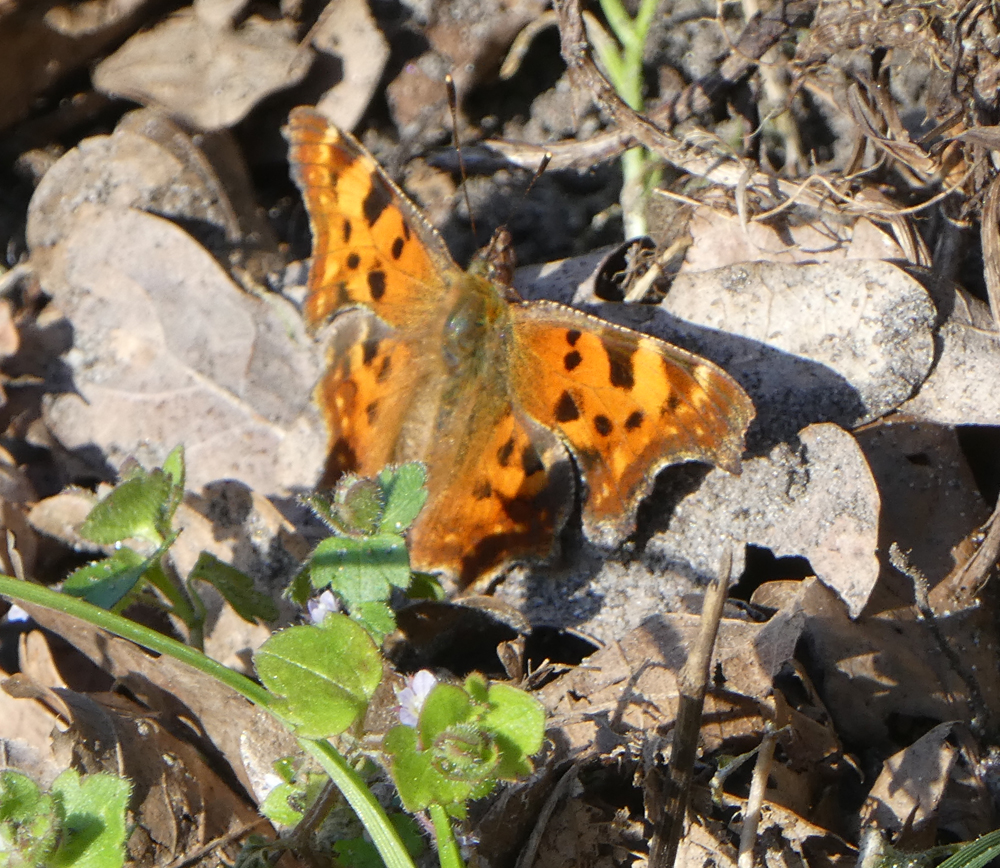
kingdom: Animalia
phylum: Arthropoda
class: Insecta
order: Lepidoptera
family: Nymphalidae
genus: Polygonia
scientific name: Polygonia c-album
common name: Comma
